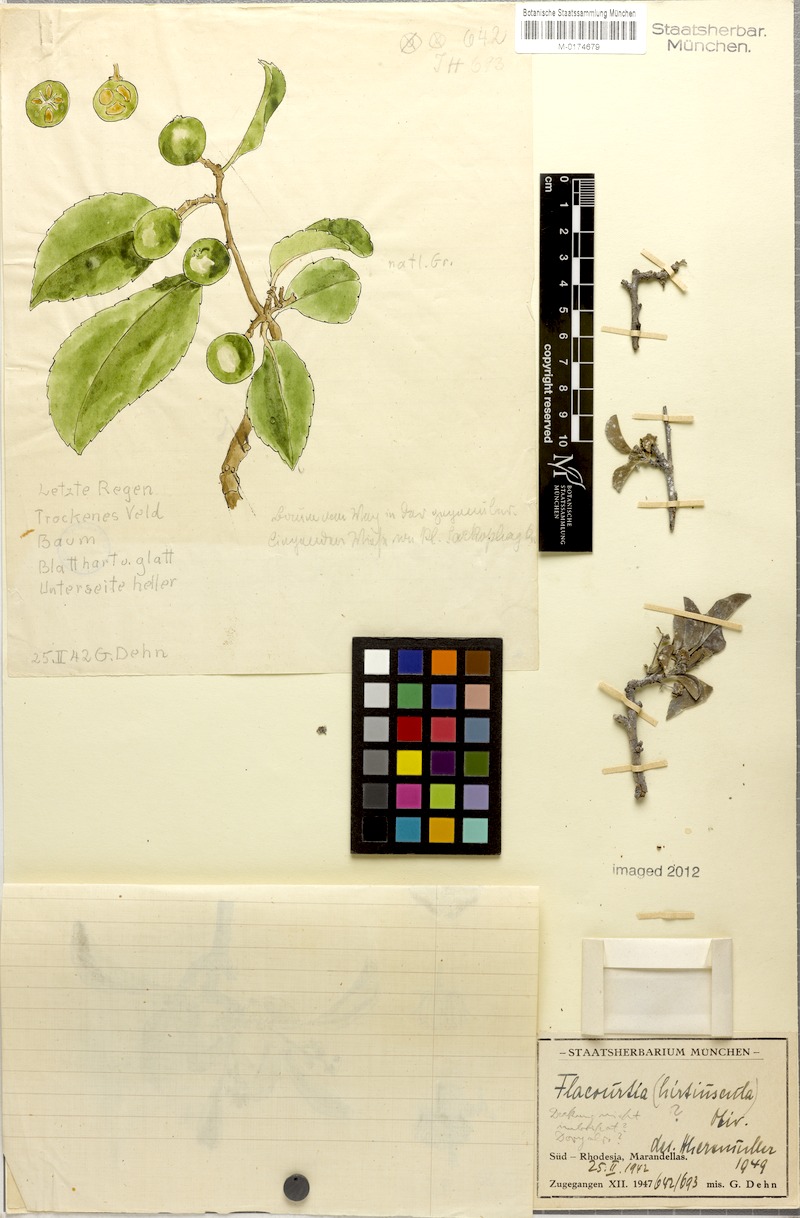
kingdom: Plantae
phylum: Tracheophyta
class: Magnoliopsida
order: Malpighiales
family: Salicaceae
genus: Flacourtia
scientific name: Flacourtia indica
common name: Governor's plum
